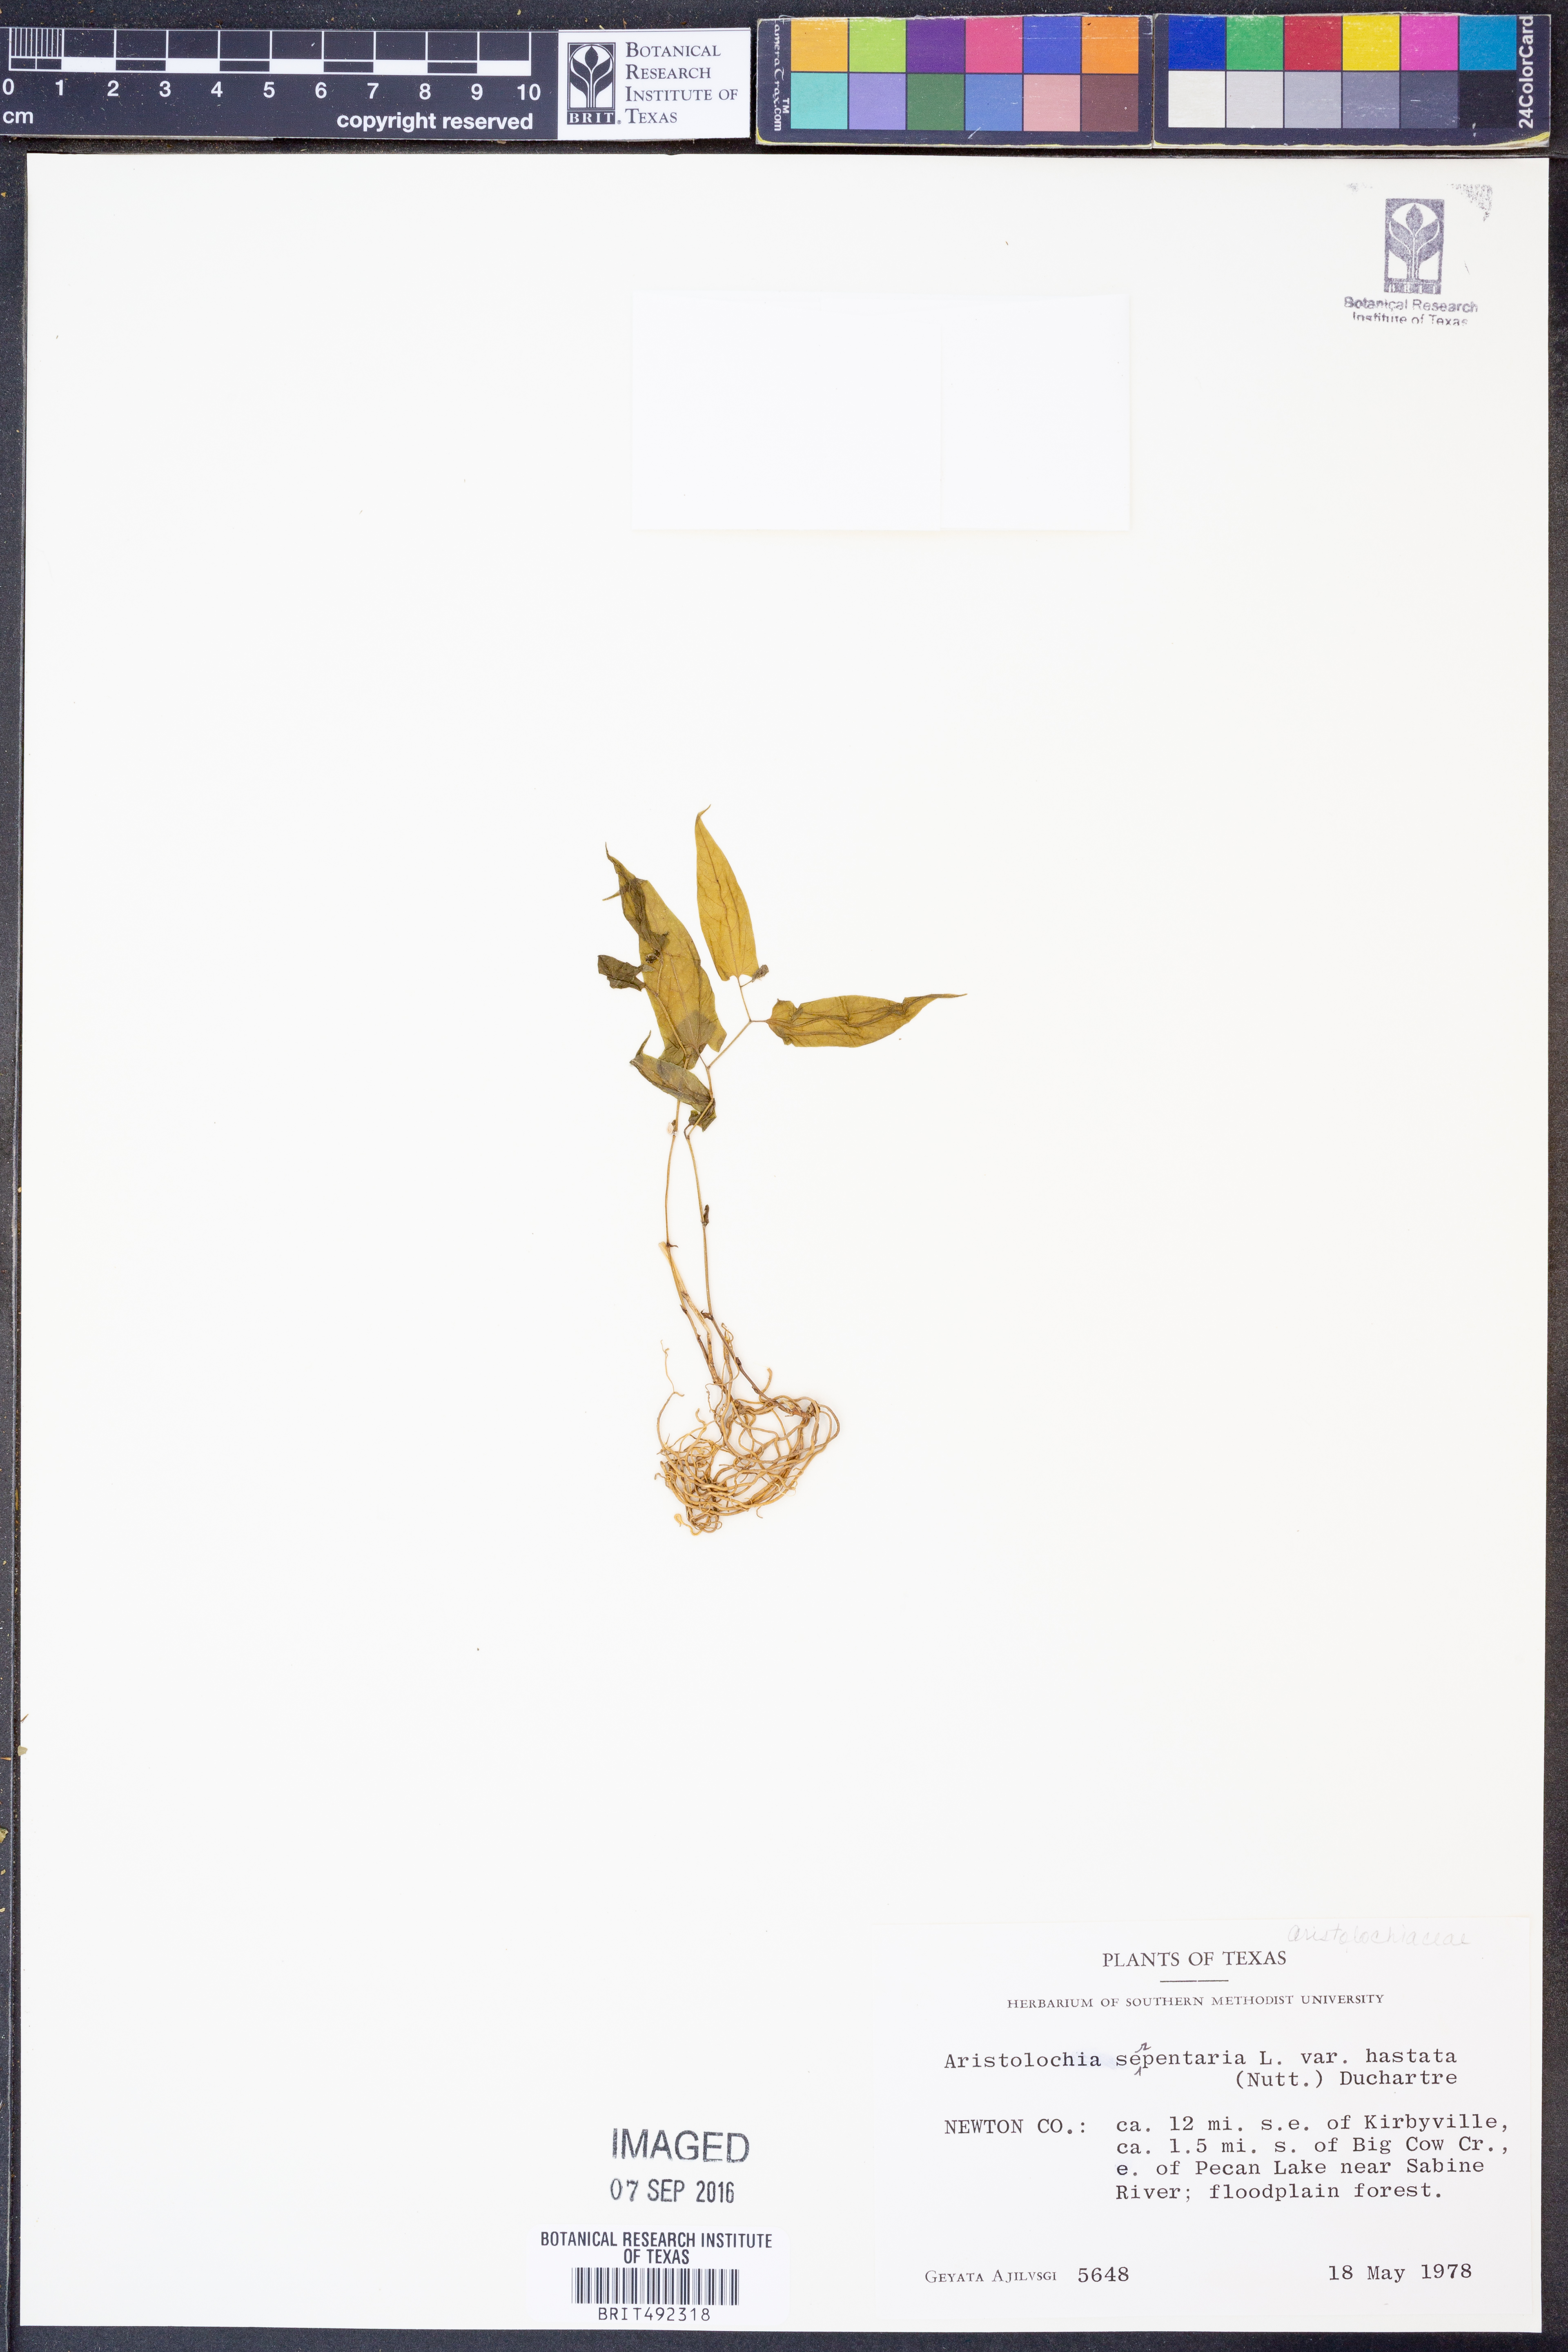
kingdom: Plantae
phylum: Tracheophyta
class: Magnoliopsida
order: Piperales
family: Aristolochiaceae
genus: Endodeca
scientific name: Endodeca serpentaria
